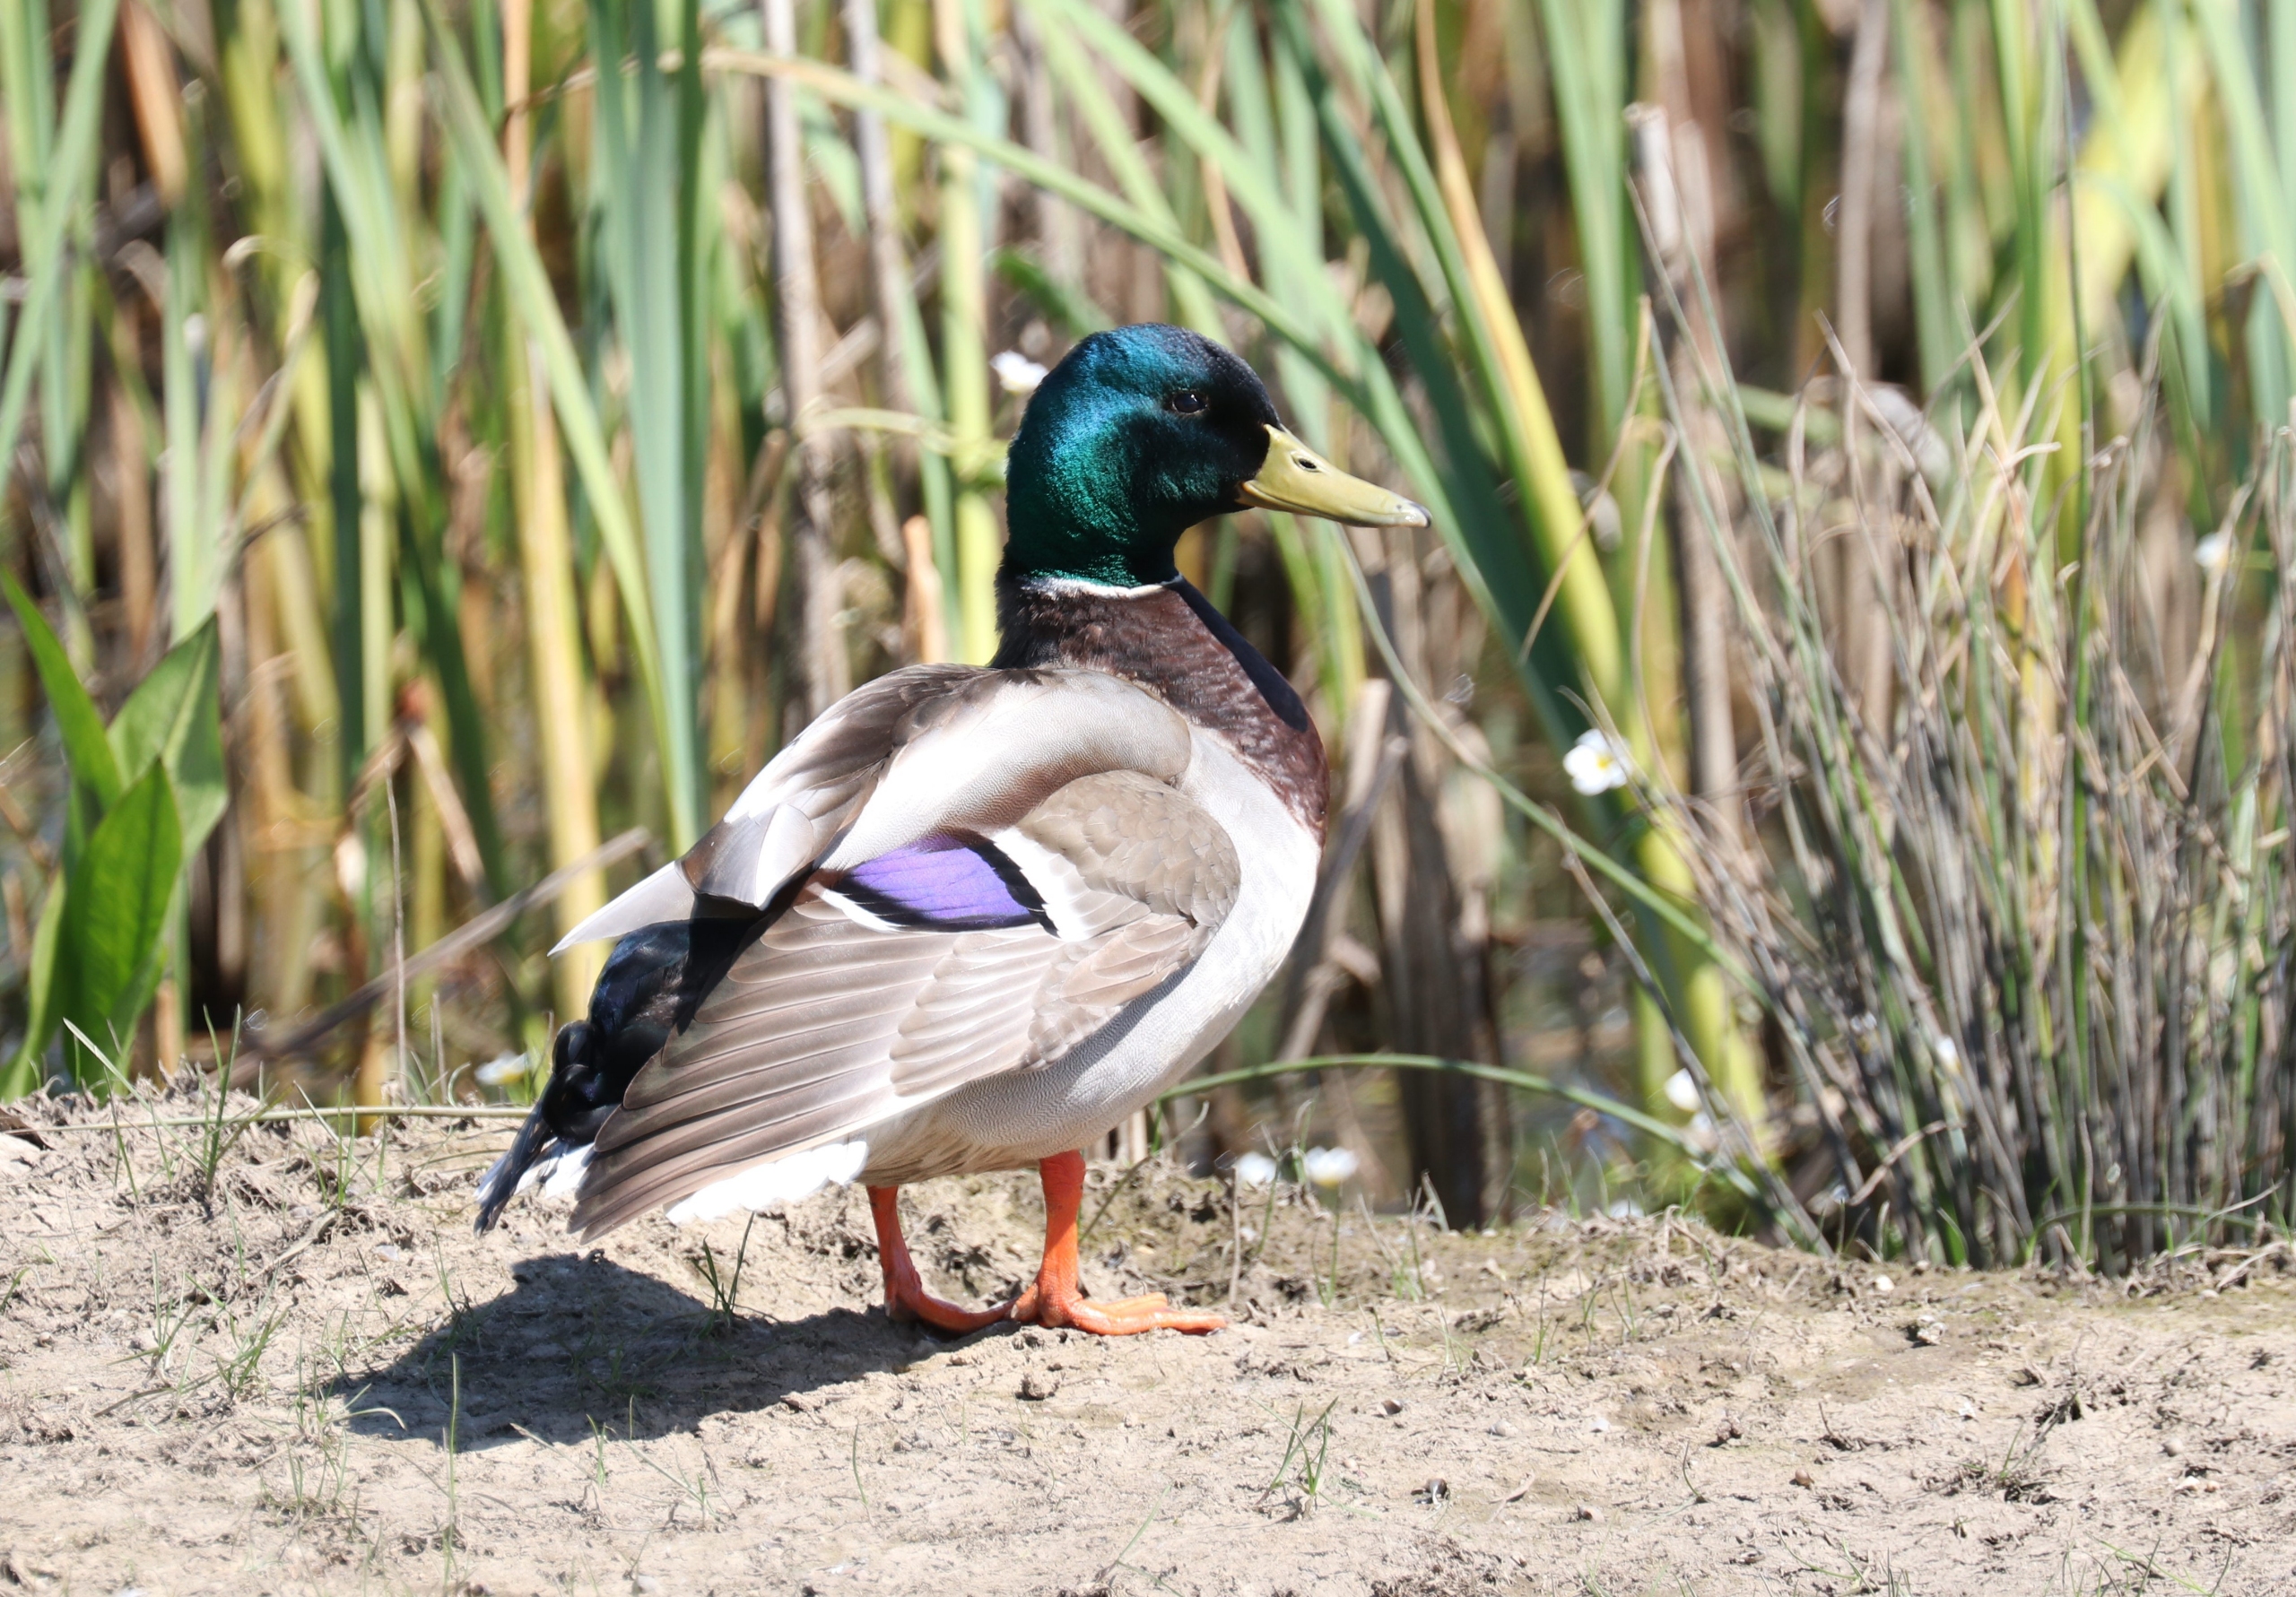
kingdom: Animalia
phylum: Chordata
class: Aves
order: Anseriformes
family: Anatidae
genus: Anas
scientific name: Anas platyrhynchos
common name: Gråand
